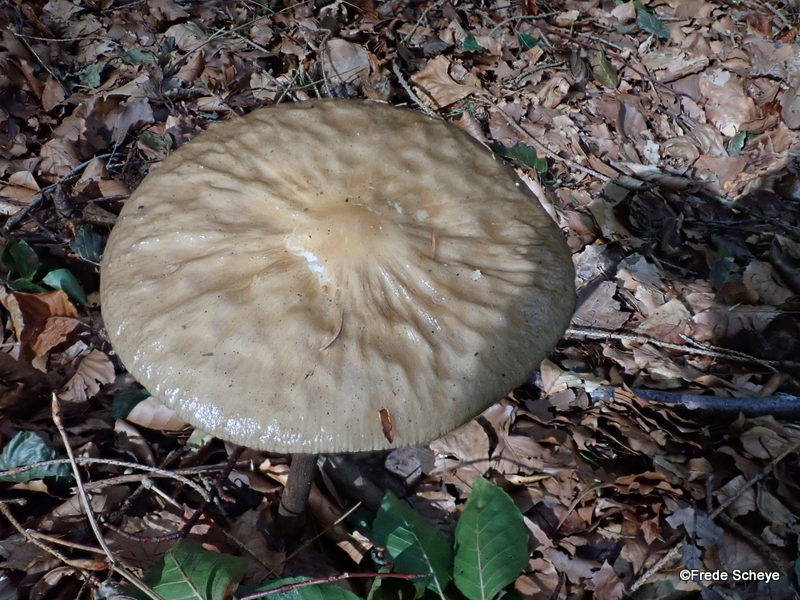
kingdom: Fungi
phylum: Basidiomycota
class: Agaricomycetes
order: Agaricales
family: Physalacriaceae
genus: Hymenopellis
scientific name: Hymenopellis radicata
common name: almindelig pælerodshat
